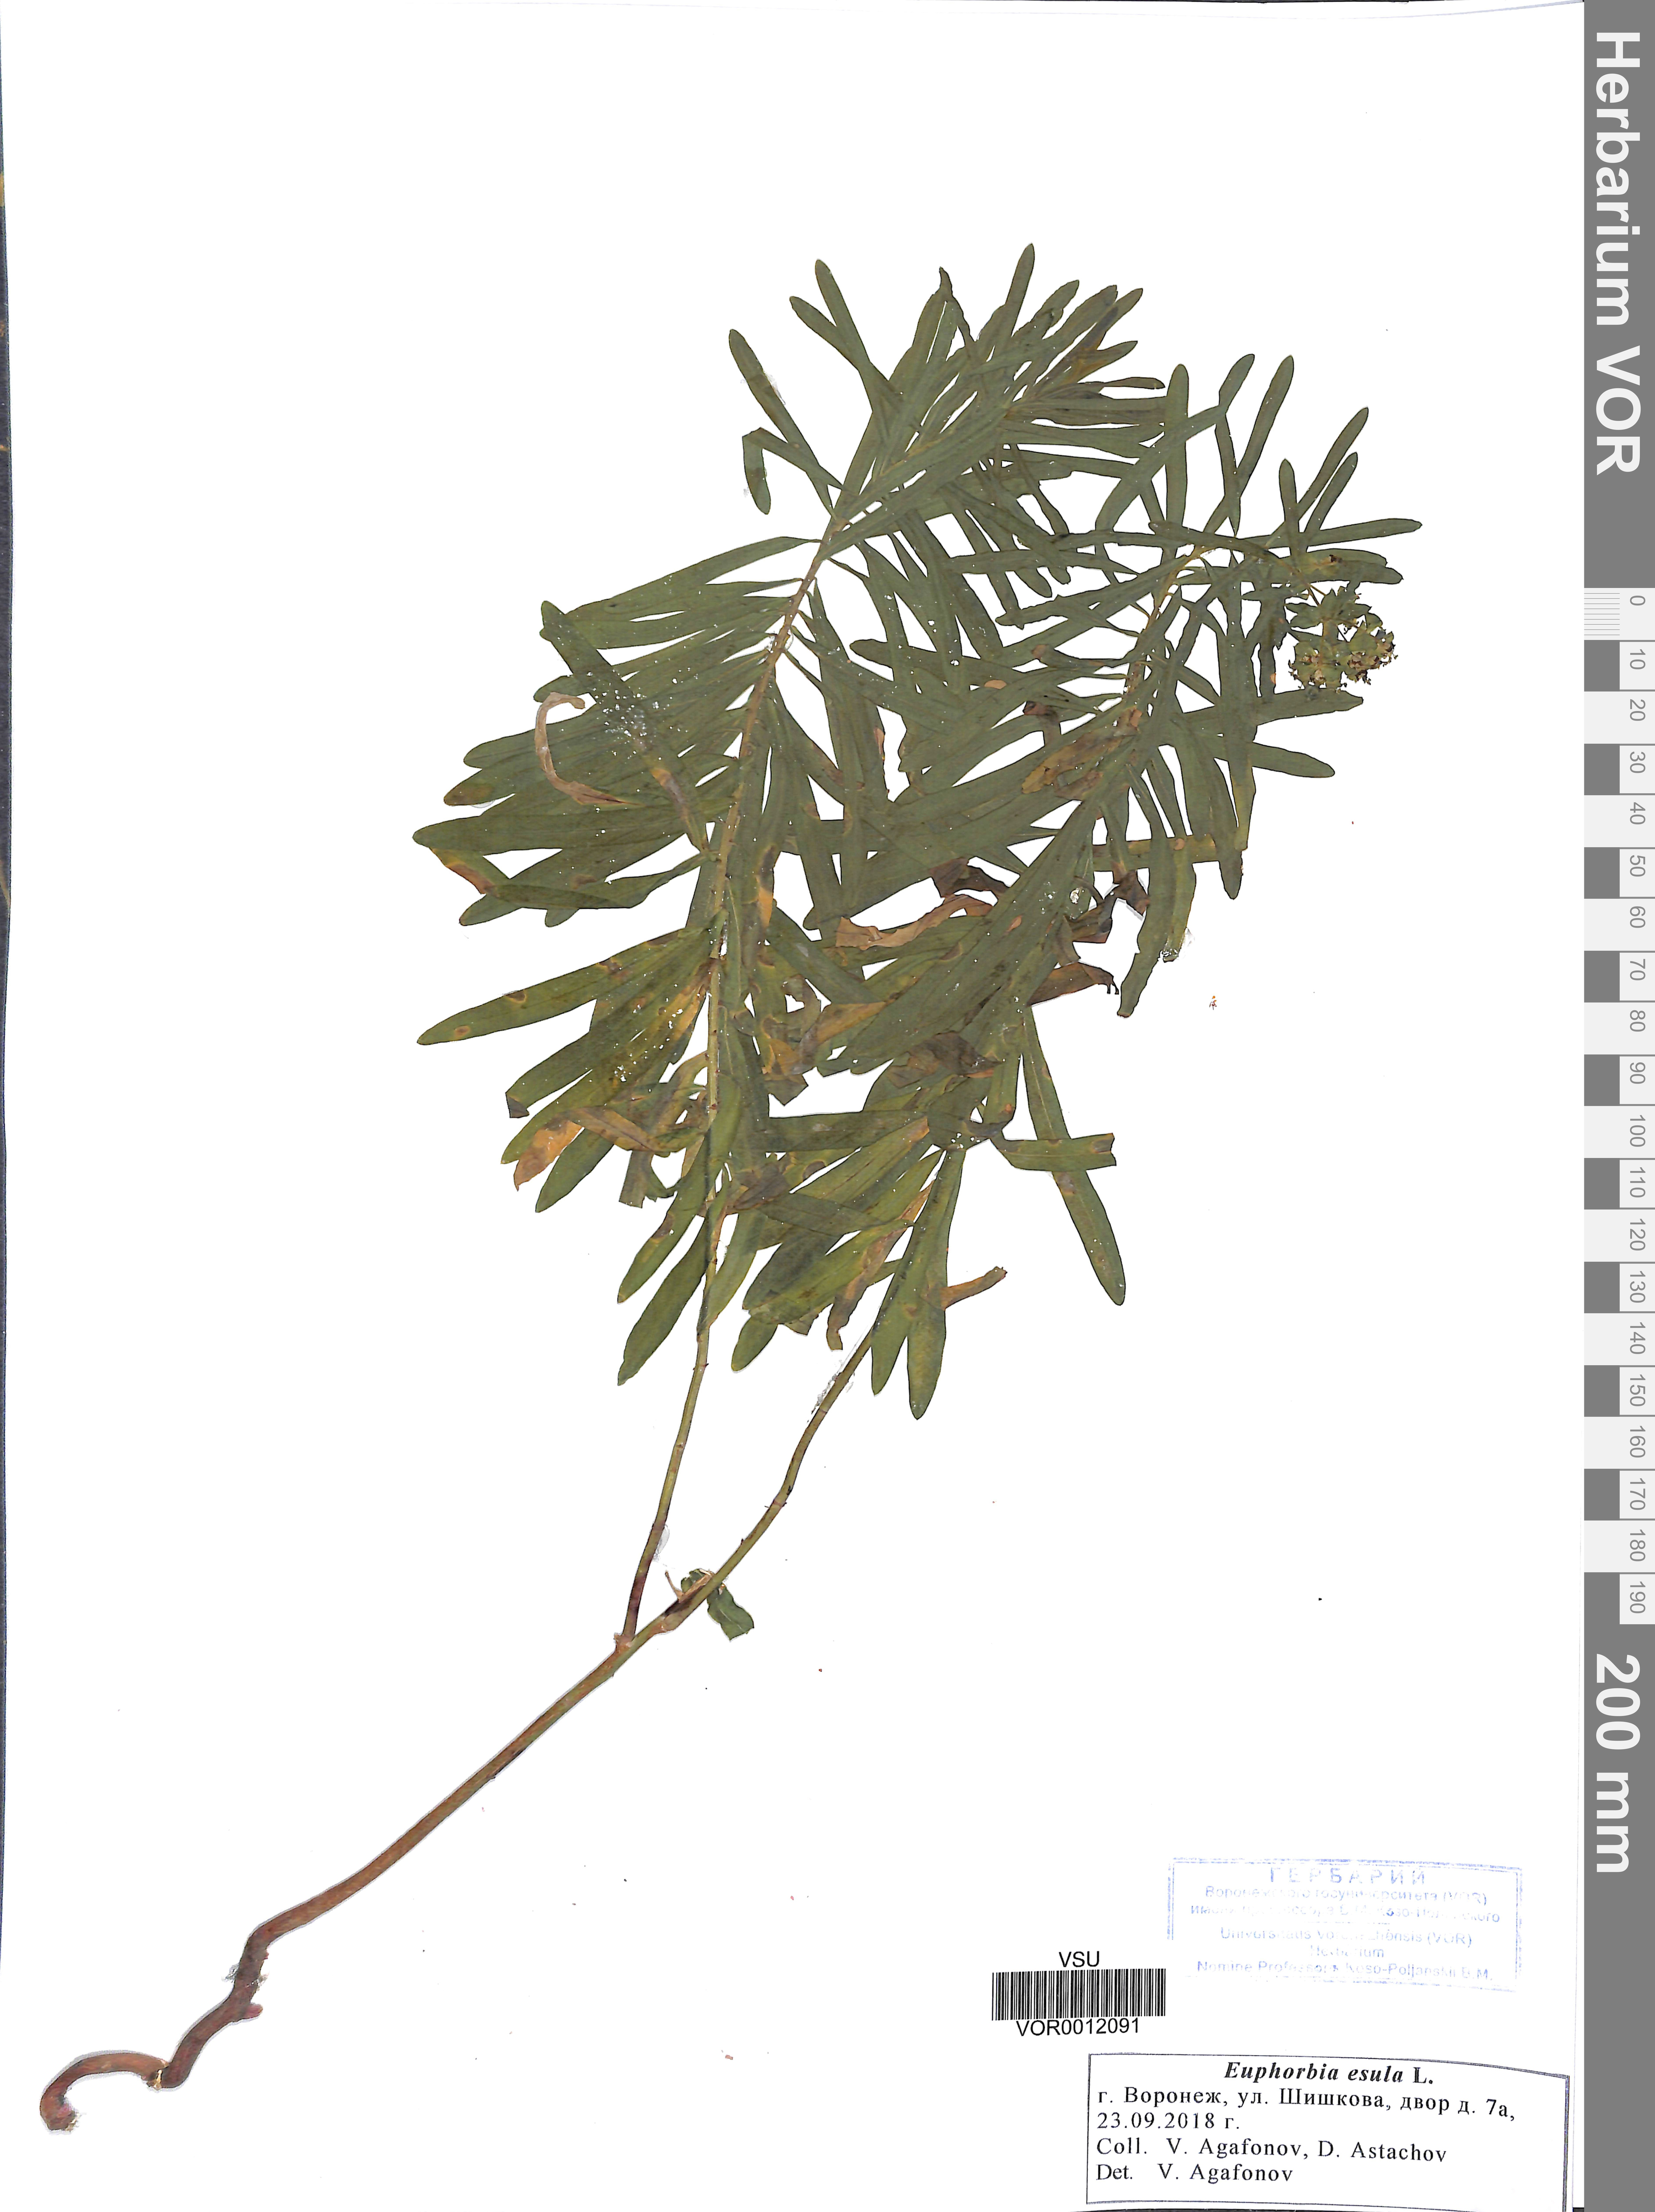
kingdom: Plantae
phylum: Tracheophyta
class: Magnoliopsida
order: Malpighiales
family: Euphorbiaceae
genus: Euphorbia
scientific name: Euphorbia esula
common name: Leafy spurge
